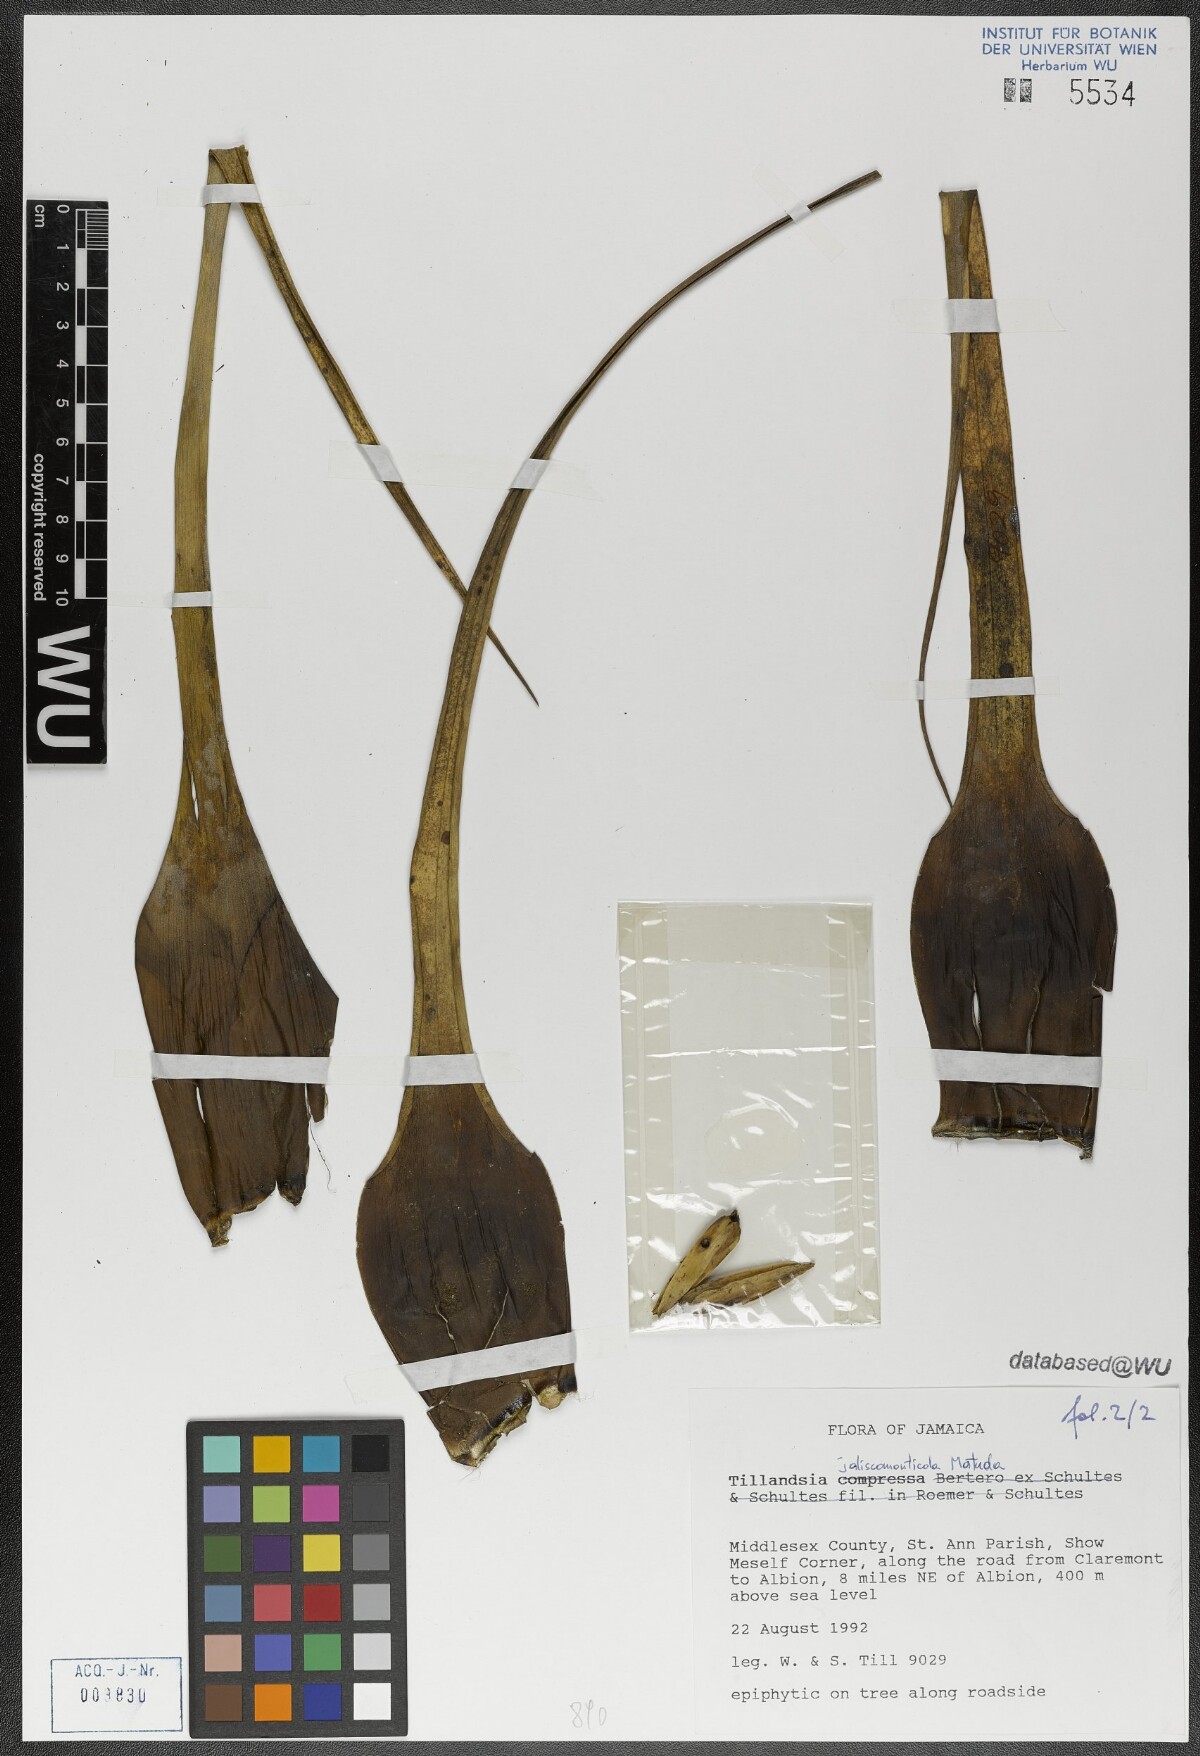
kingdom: Plantae
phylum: Tracheophyta
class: Liliopsida
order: Poales
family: Bromeliaceae
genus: Tillandsia
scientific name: Tillandsia compressa
